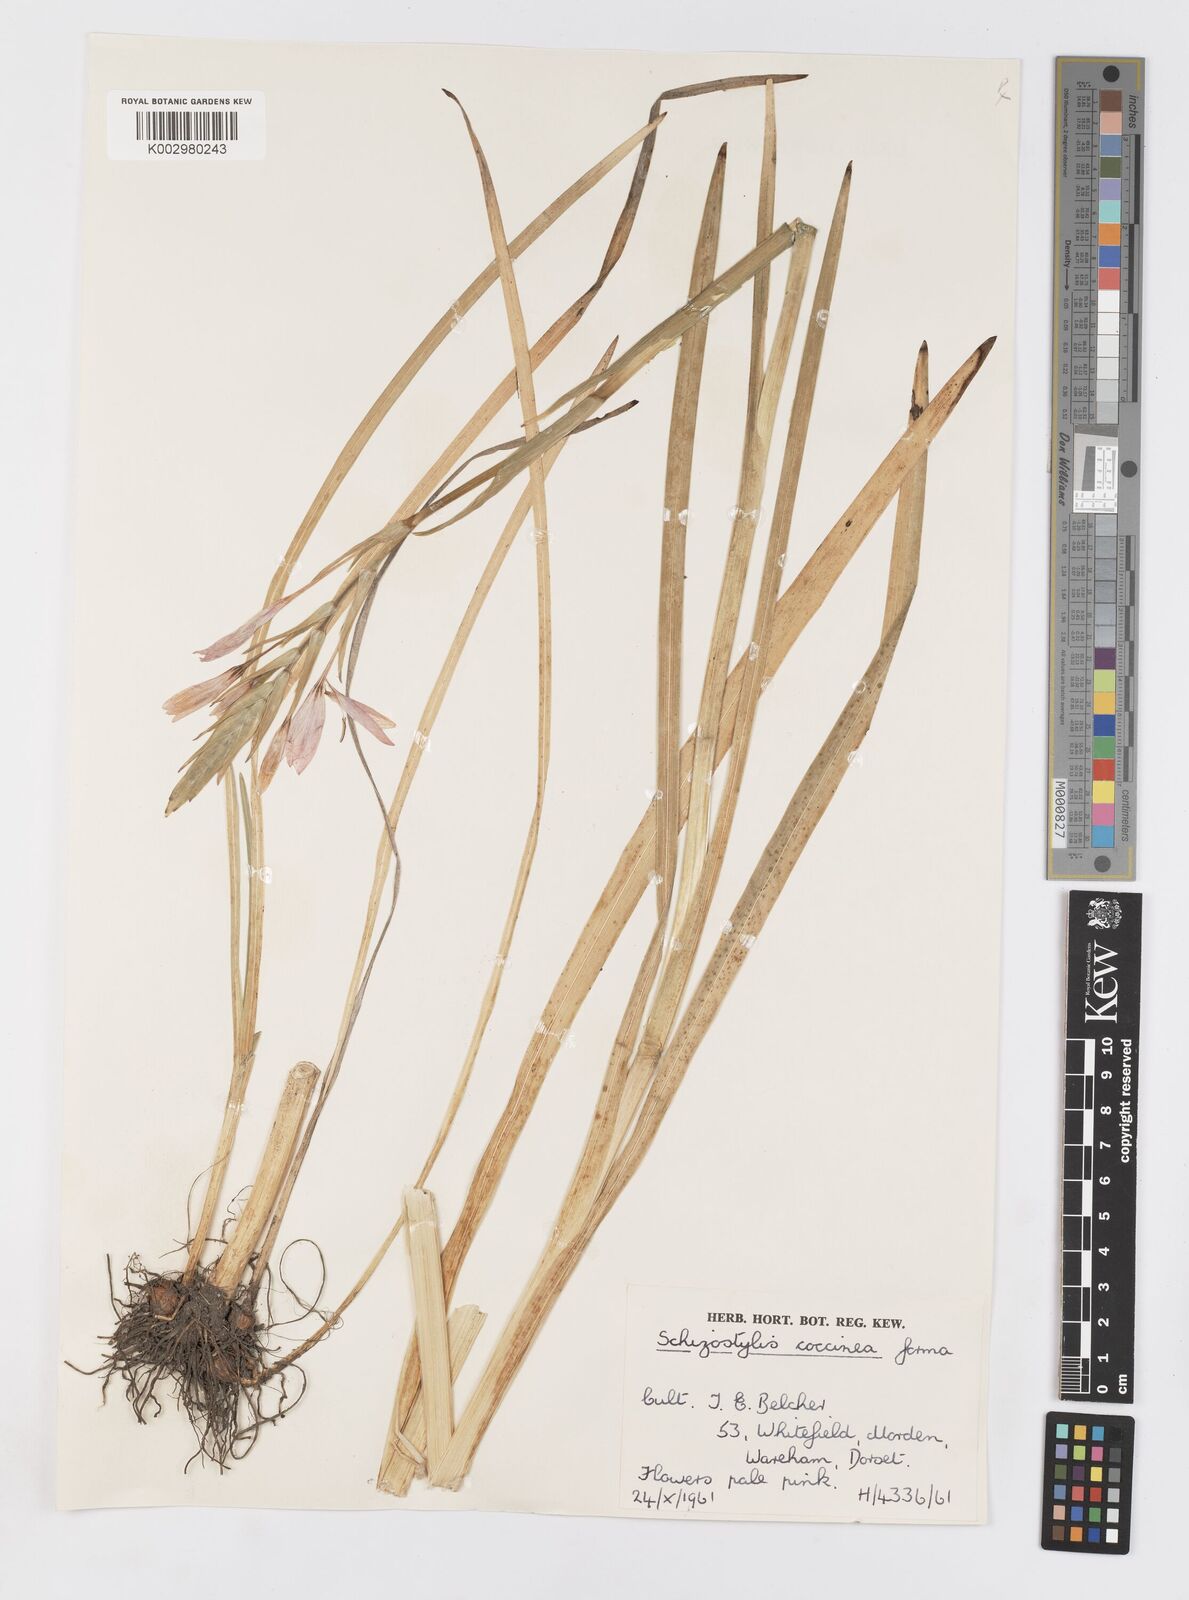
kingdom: Plantae
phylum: Tracheophyta
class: Liliopsida
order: Asparagales
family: Iridaceae
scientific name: Iridaceae
